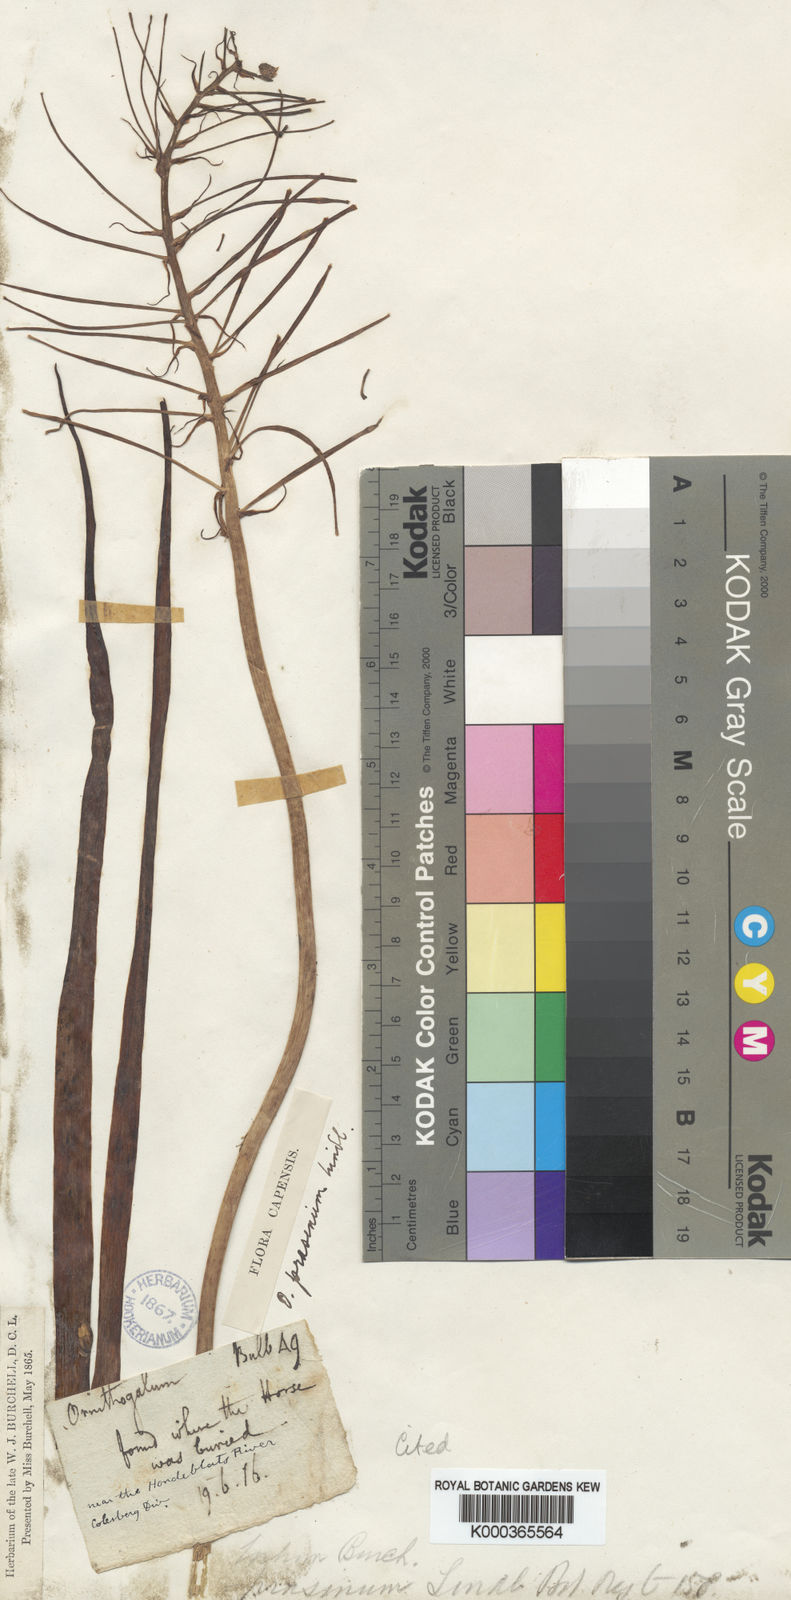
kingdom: Plantae
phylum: Tracheophyta
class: Liliopsida
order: Asparagales
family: Asparagaceae
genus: Ornithogalum
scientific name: Ornithogalum
